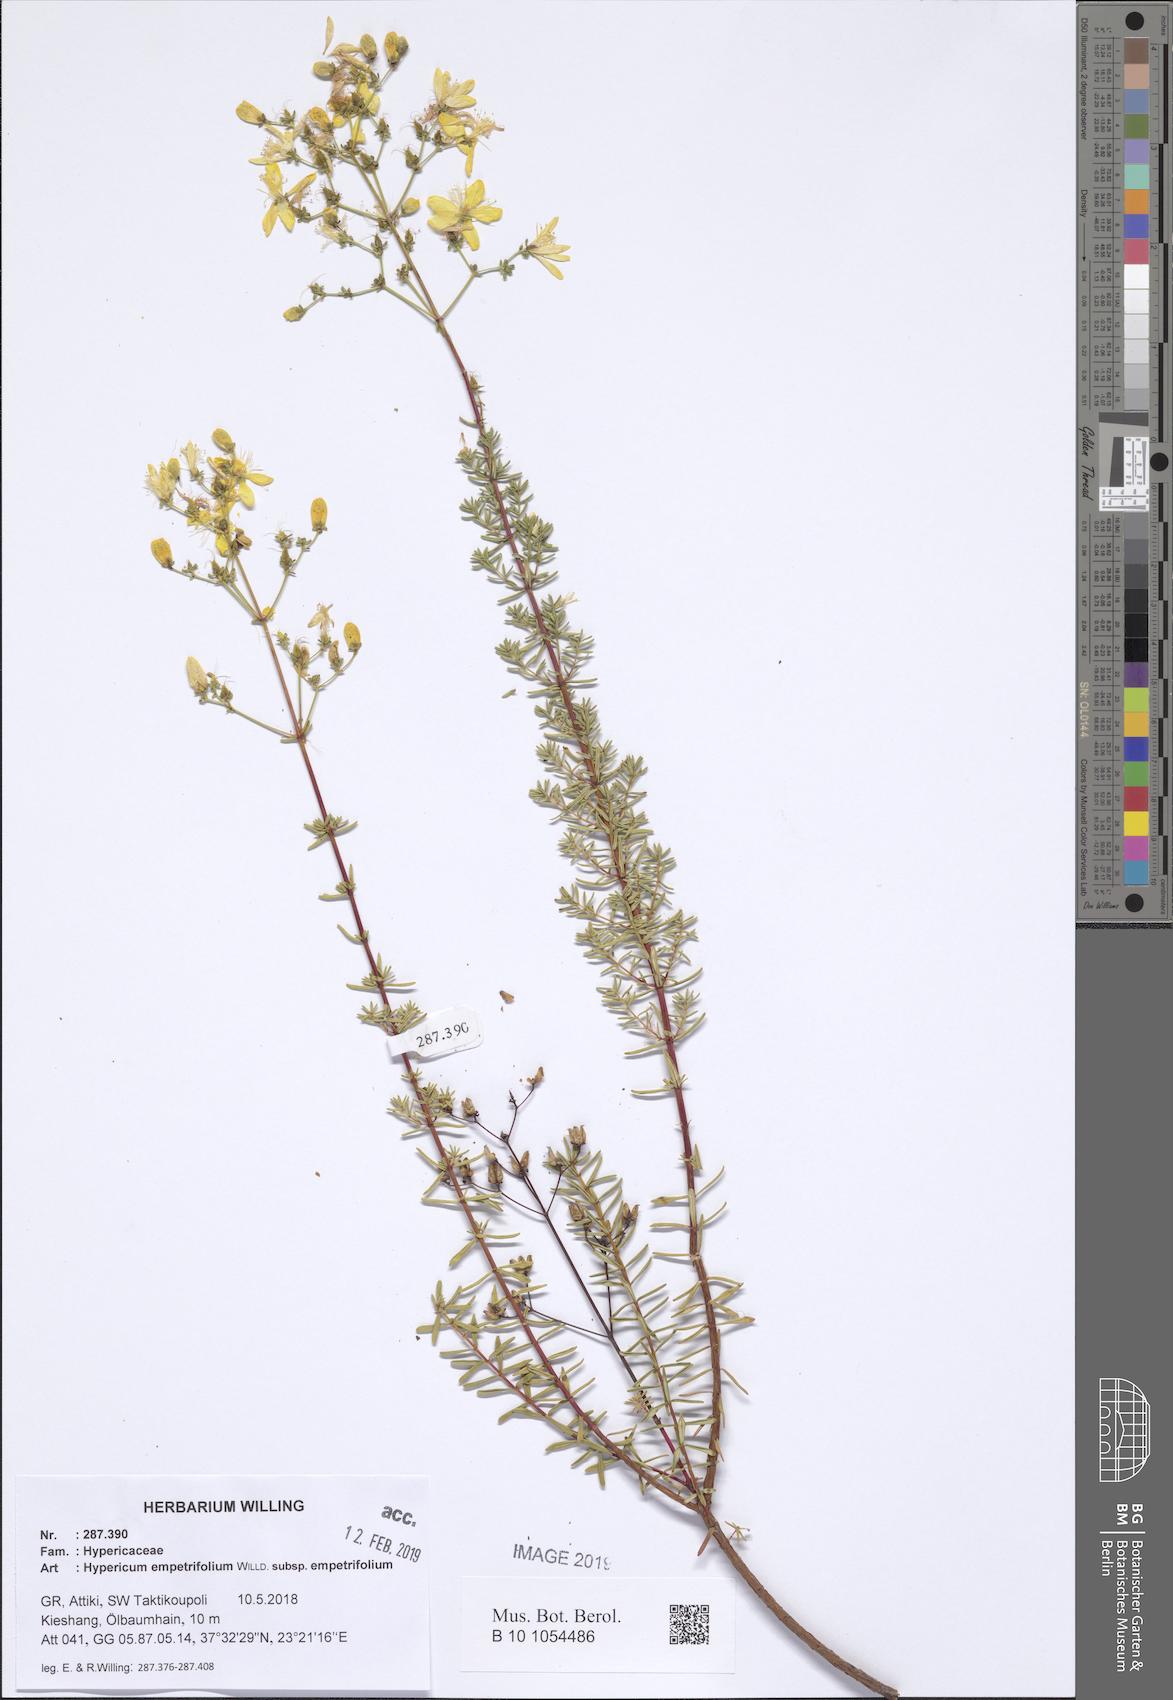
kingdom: Plantae
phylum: Tracheophyta
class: Magnoliopsida
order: Malpighiales
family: Hypericaceae
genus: Hypericum
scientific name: Hypericum empetrifolium
